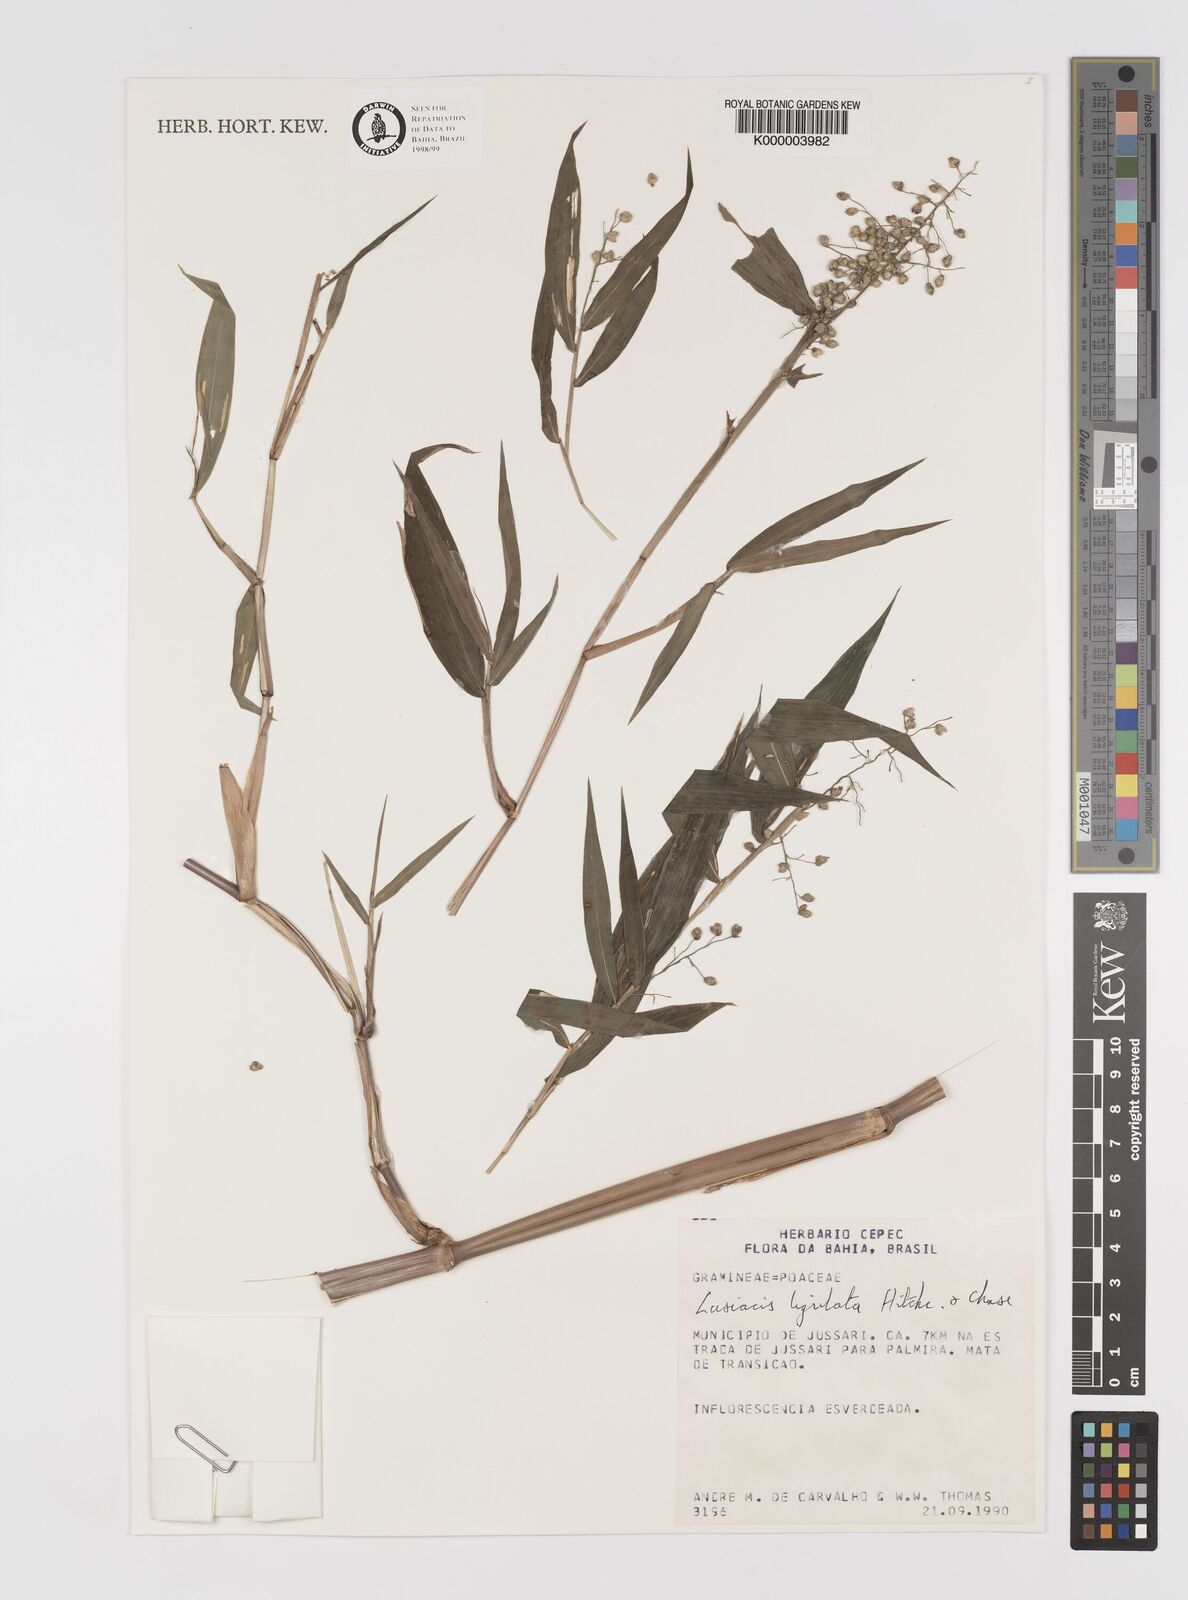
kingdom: Plantae
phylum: Tracheophyta
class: Liliopsida
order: Poales
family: Poaceae
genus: Lasiacis
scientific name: Lasiacis ligulata
